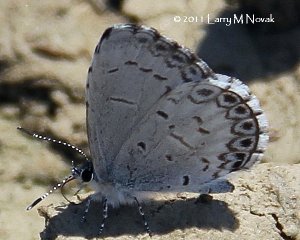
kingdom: Animalia
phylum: Arthropoda
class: Insecta
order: Lepidoptera
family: Lycaenidae
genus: Cyaniris
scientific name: Cyaniris neglecta
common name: Summer Azure
